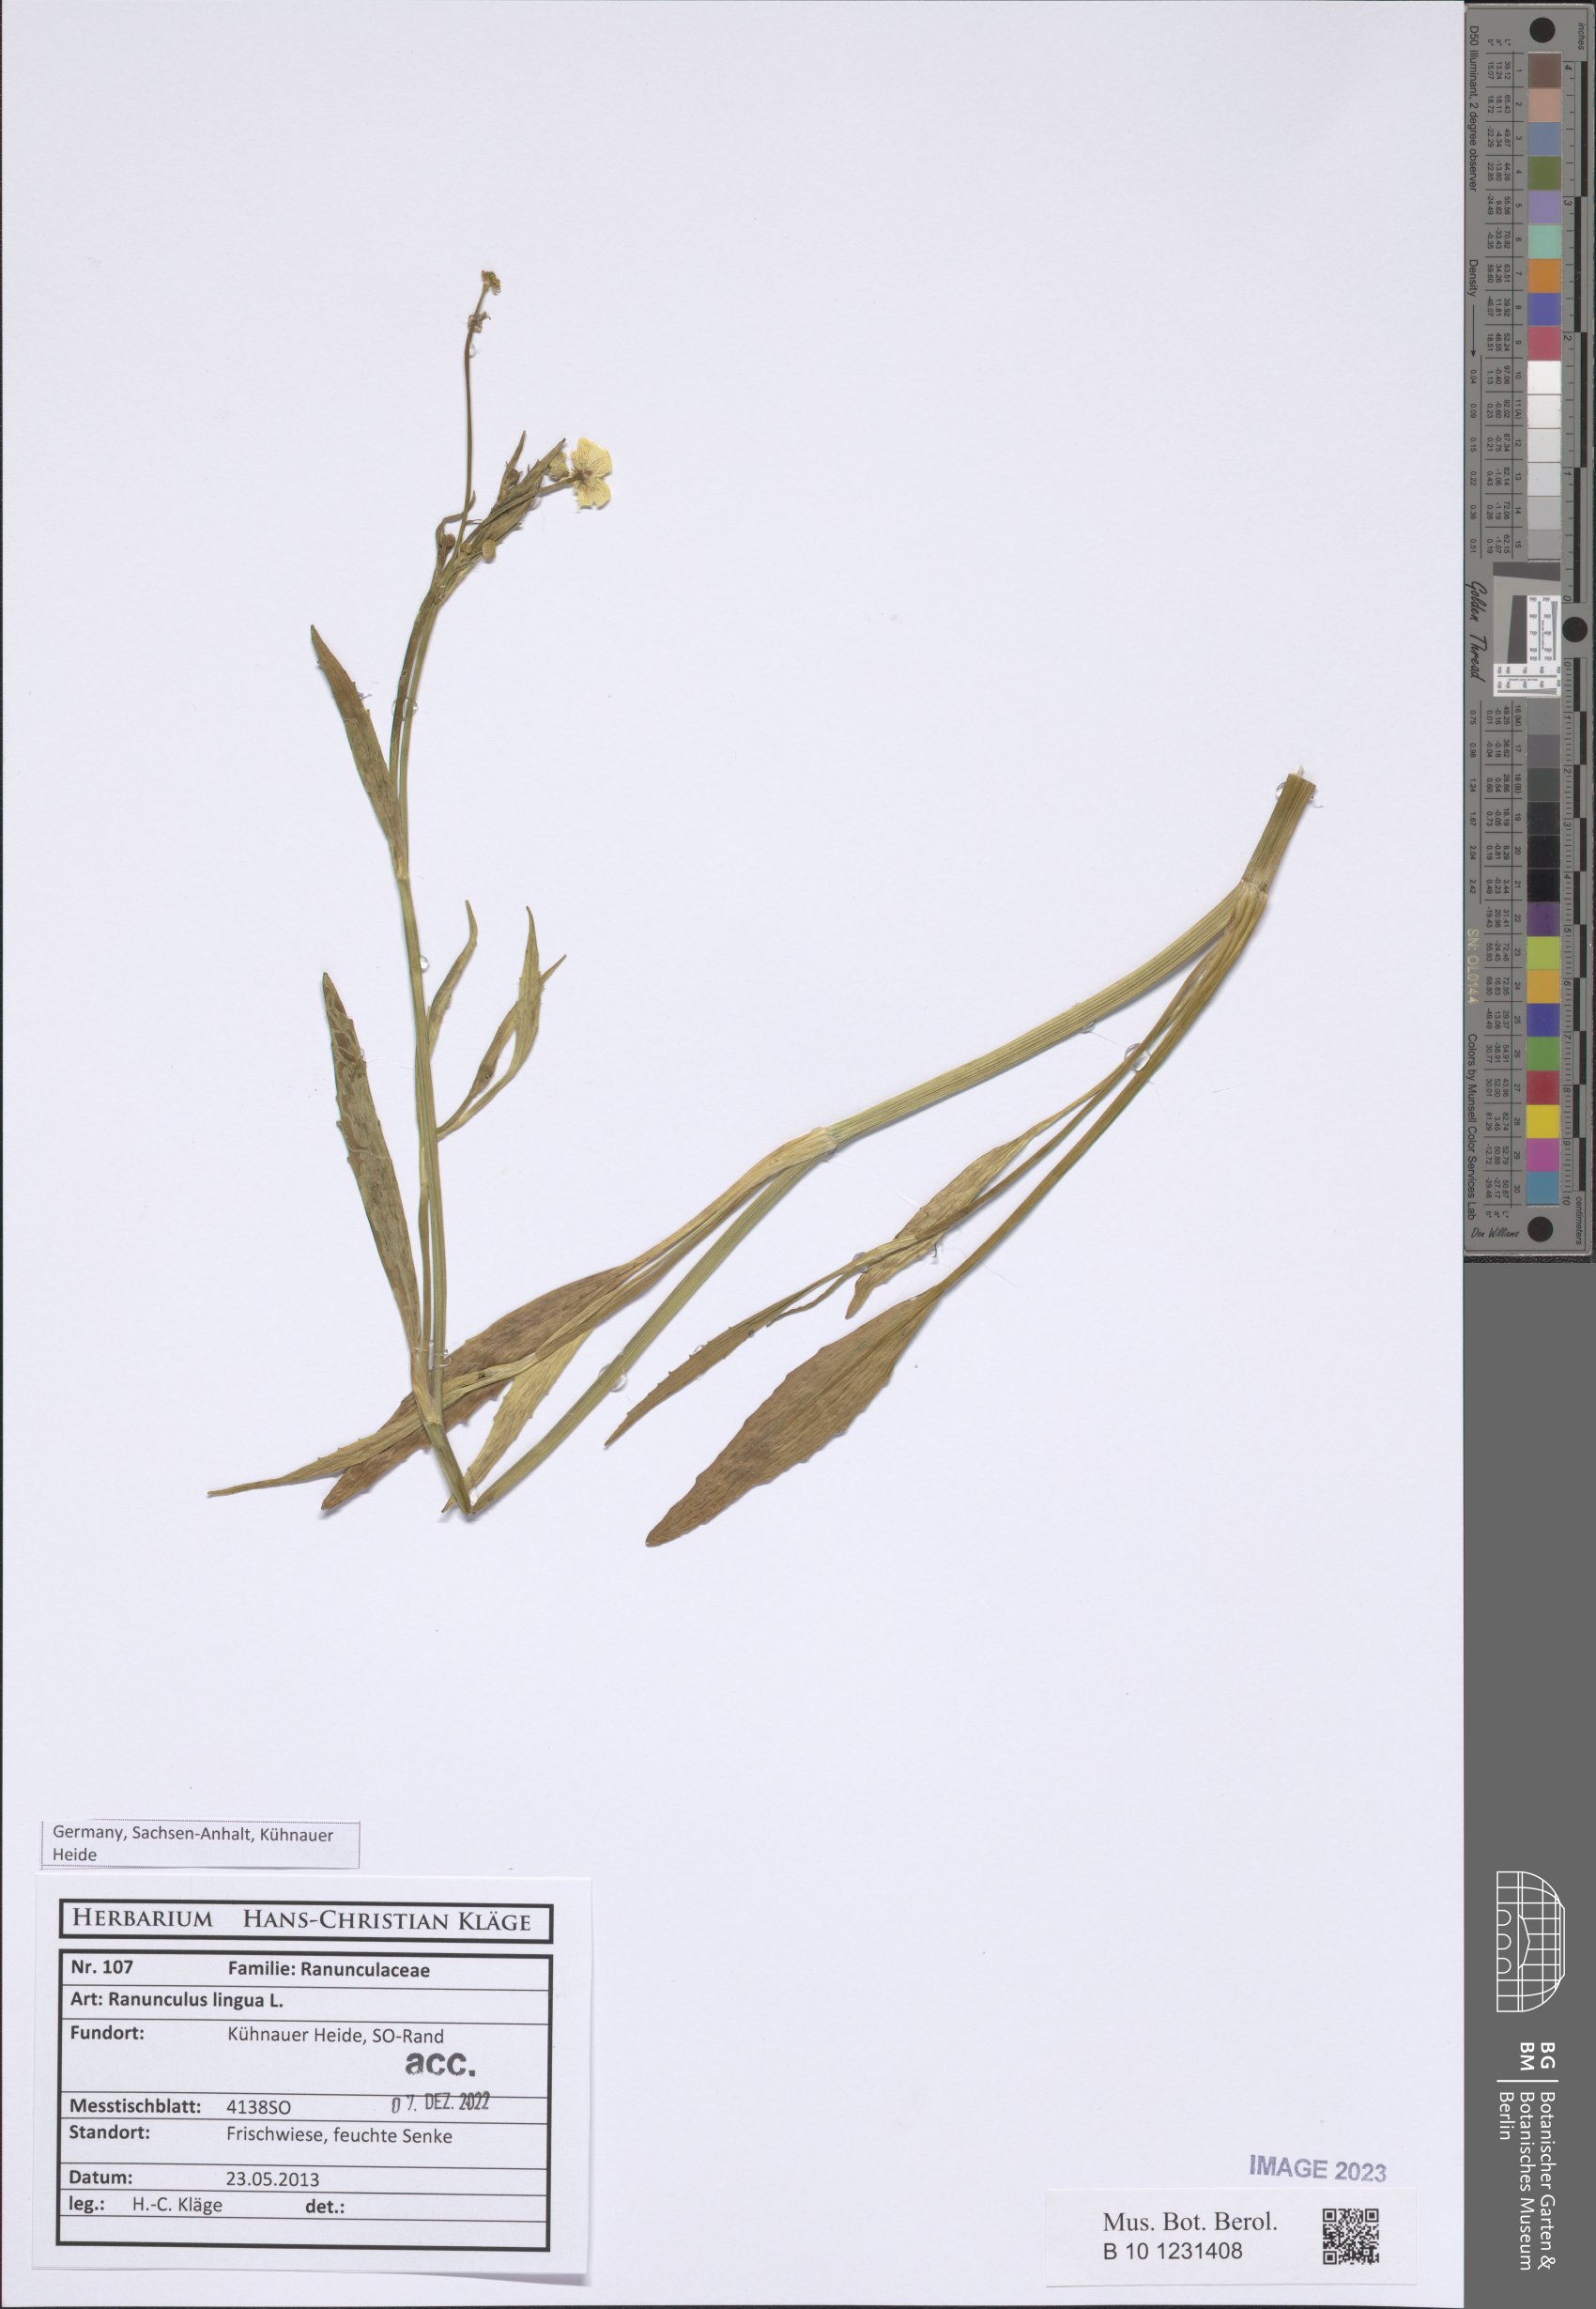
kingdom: Plantae
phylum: Tracheophyta
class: Magnoliopsida
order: Ranunculales
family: Ranunculaceae
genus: Ranunculus
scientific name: Ranunculus lingua
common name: Greater spearwort
